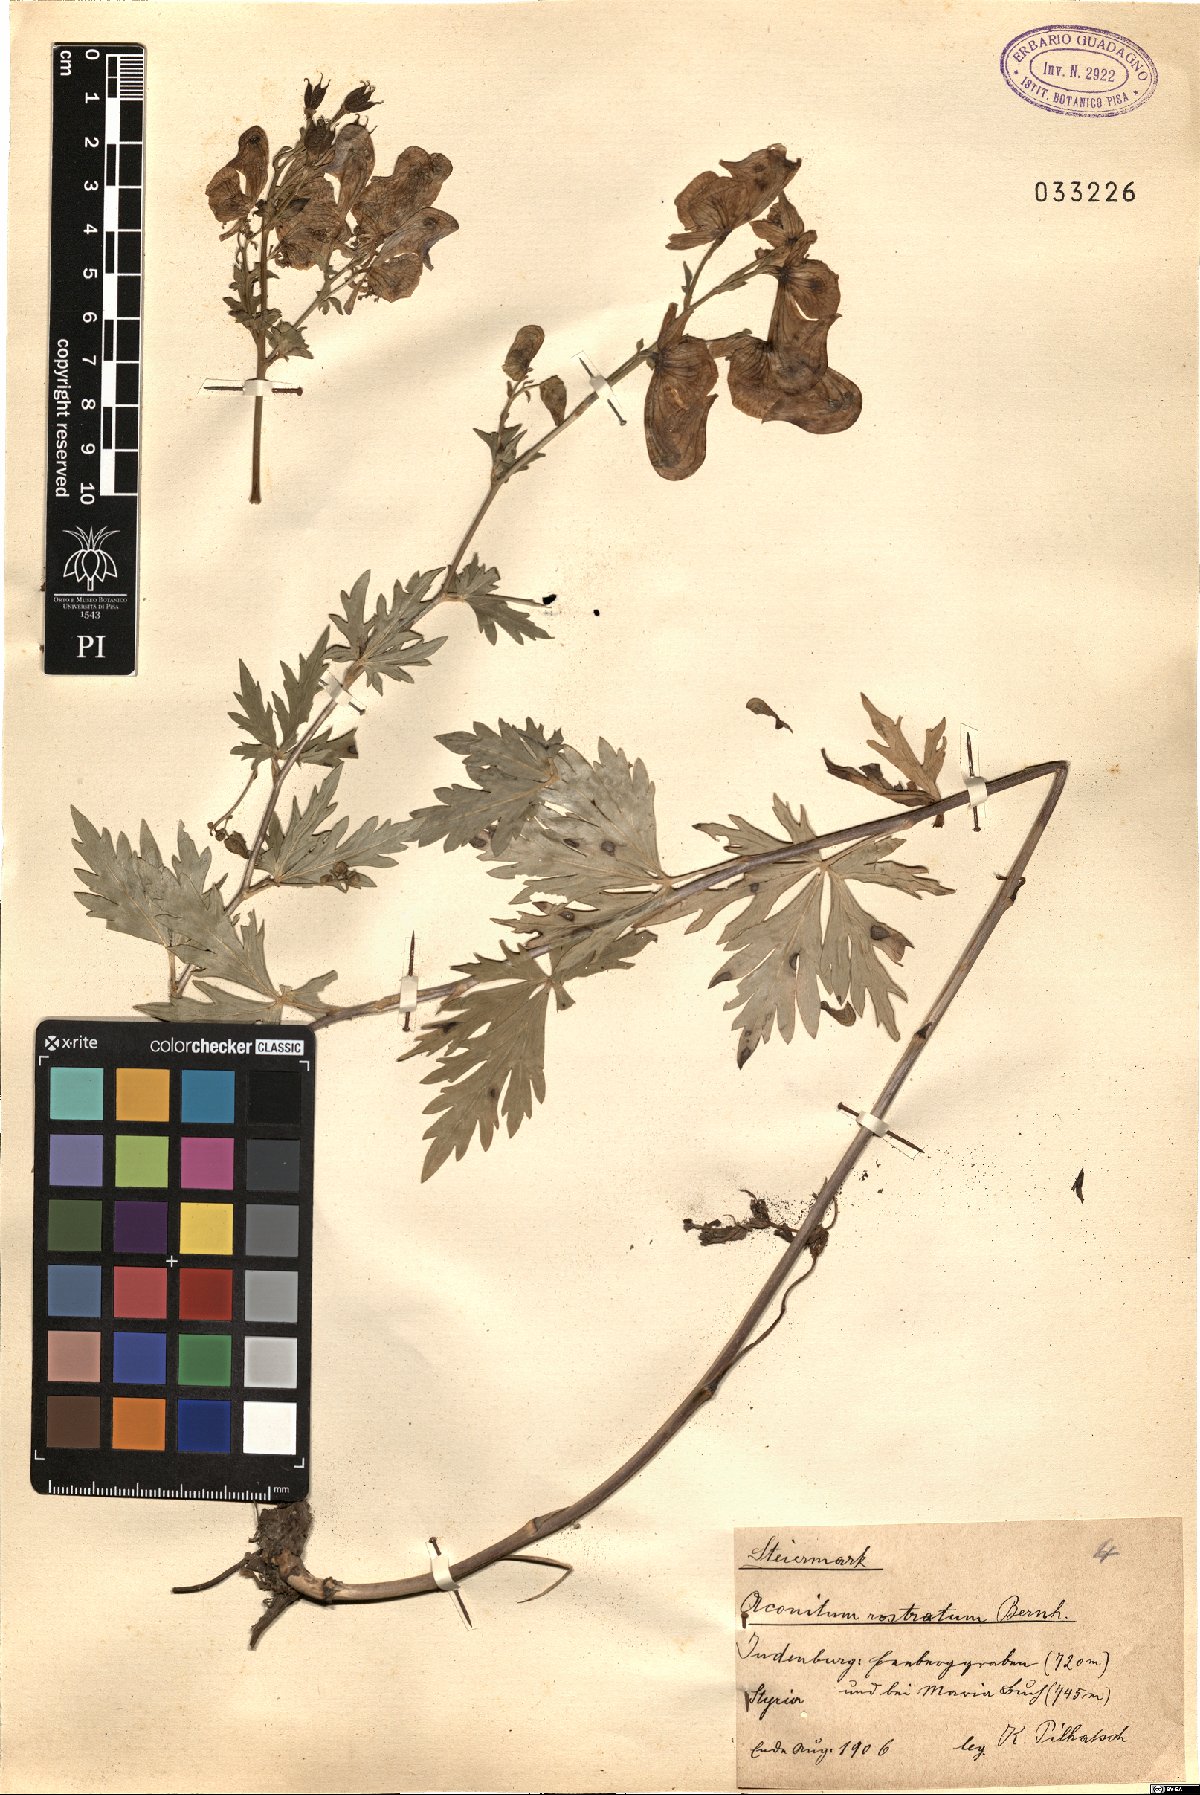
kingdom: Plantae
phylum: Tracheophyta
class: Magnoliopsida
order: Ranunculales
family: Ranunculaceae
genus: Aconitum
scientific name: Aconitum variegatum
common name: Manchurian monkshood
